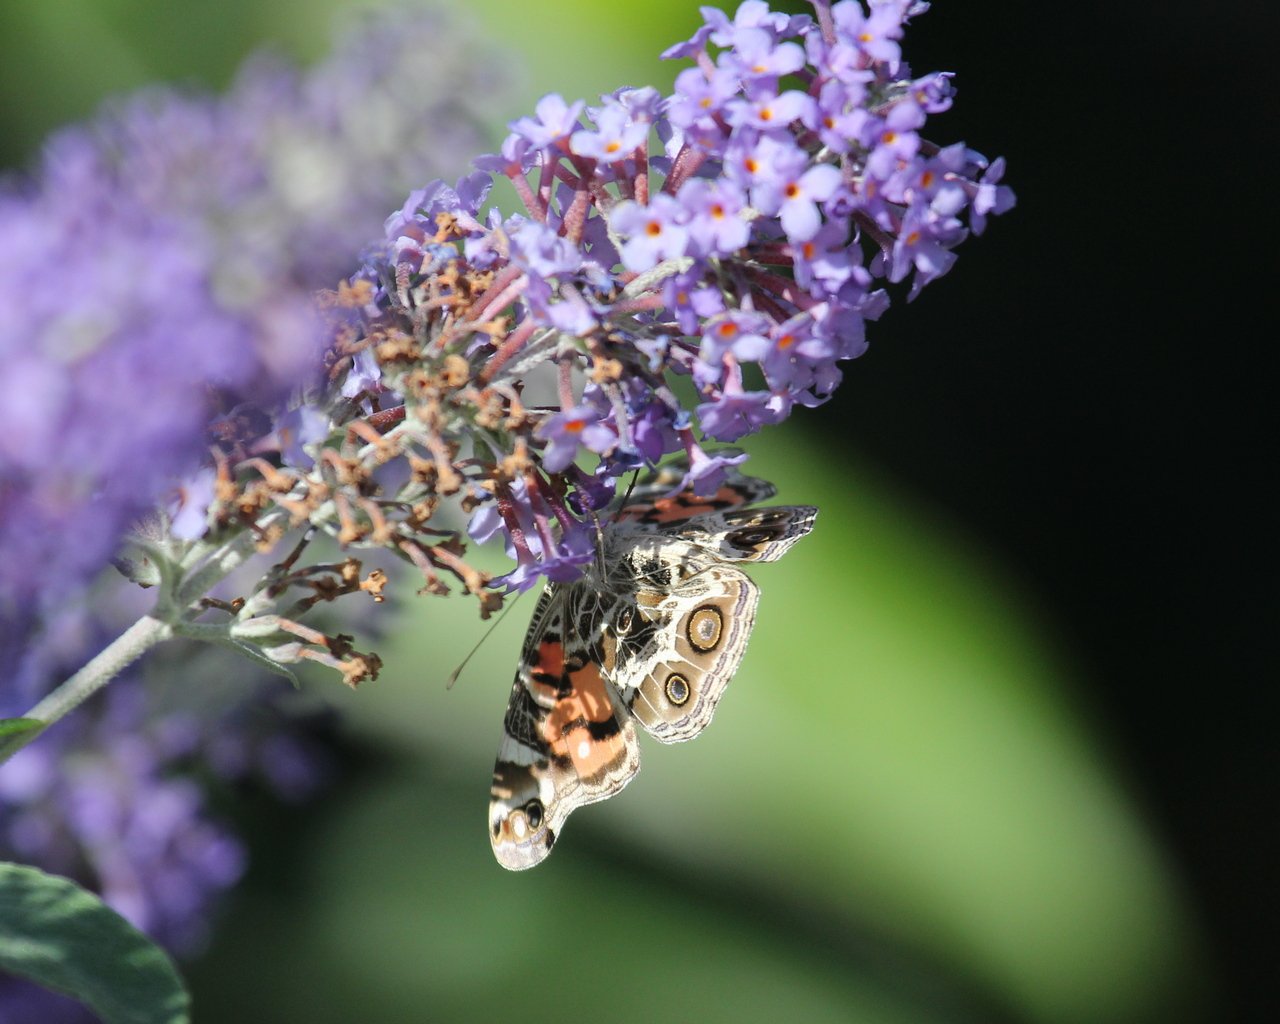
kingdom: Animalia
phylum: Arthropoda
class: Insecta
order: Lepidoptera
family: Nymphalidae
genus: Vanessa
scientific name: Vanessa virginiensis
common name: American Lady
